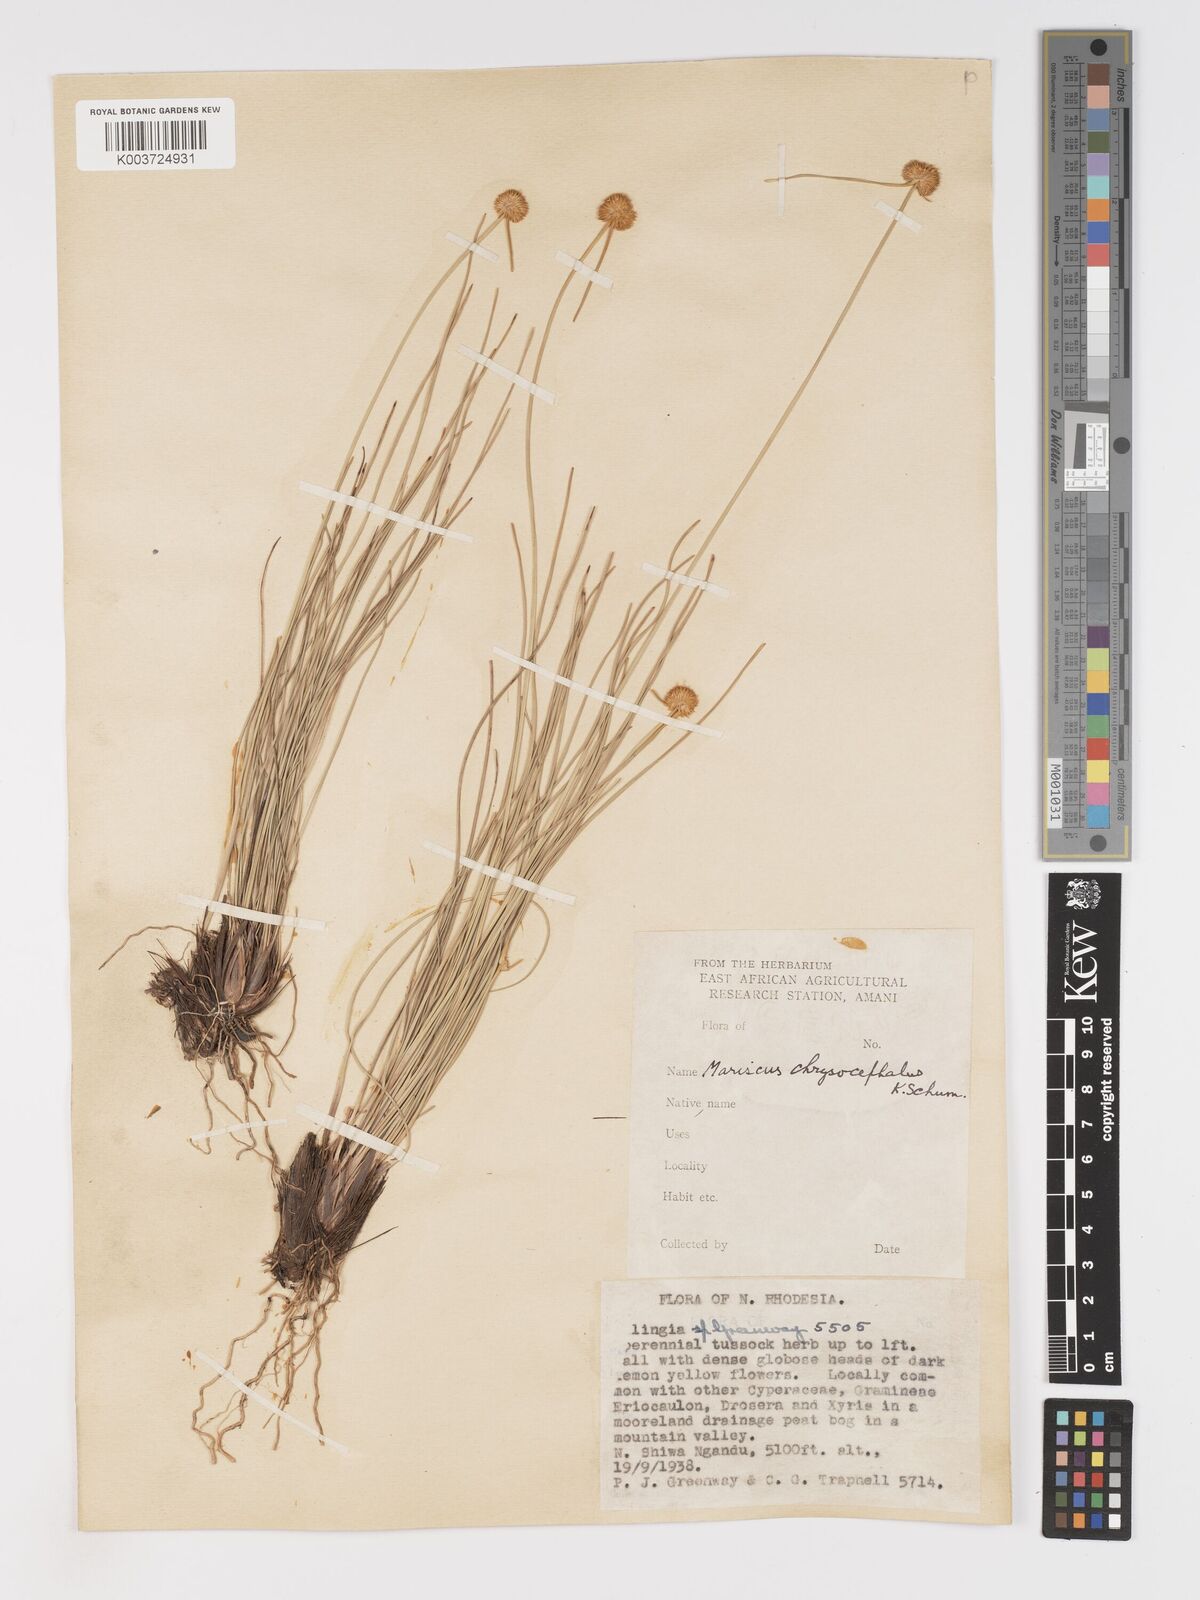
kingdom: Plantae
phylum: Tracheophyta
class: Liliopsida
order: Poales
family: Cyperaceae
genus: Cyperus
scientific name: Cyperus chrysocephalus
